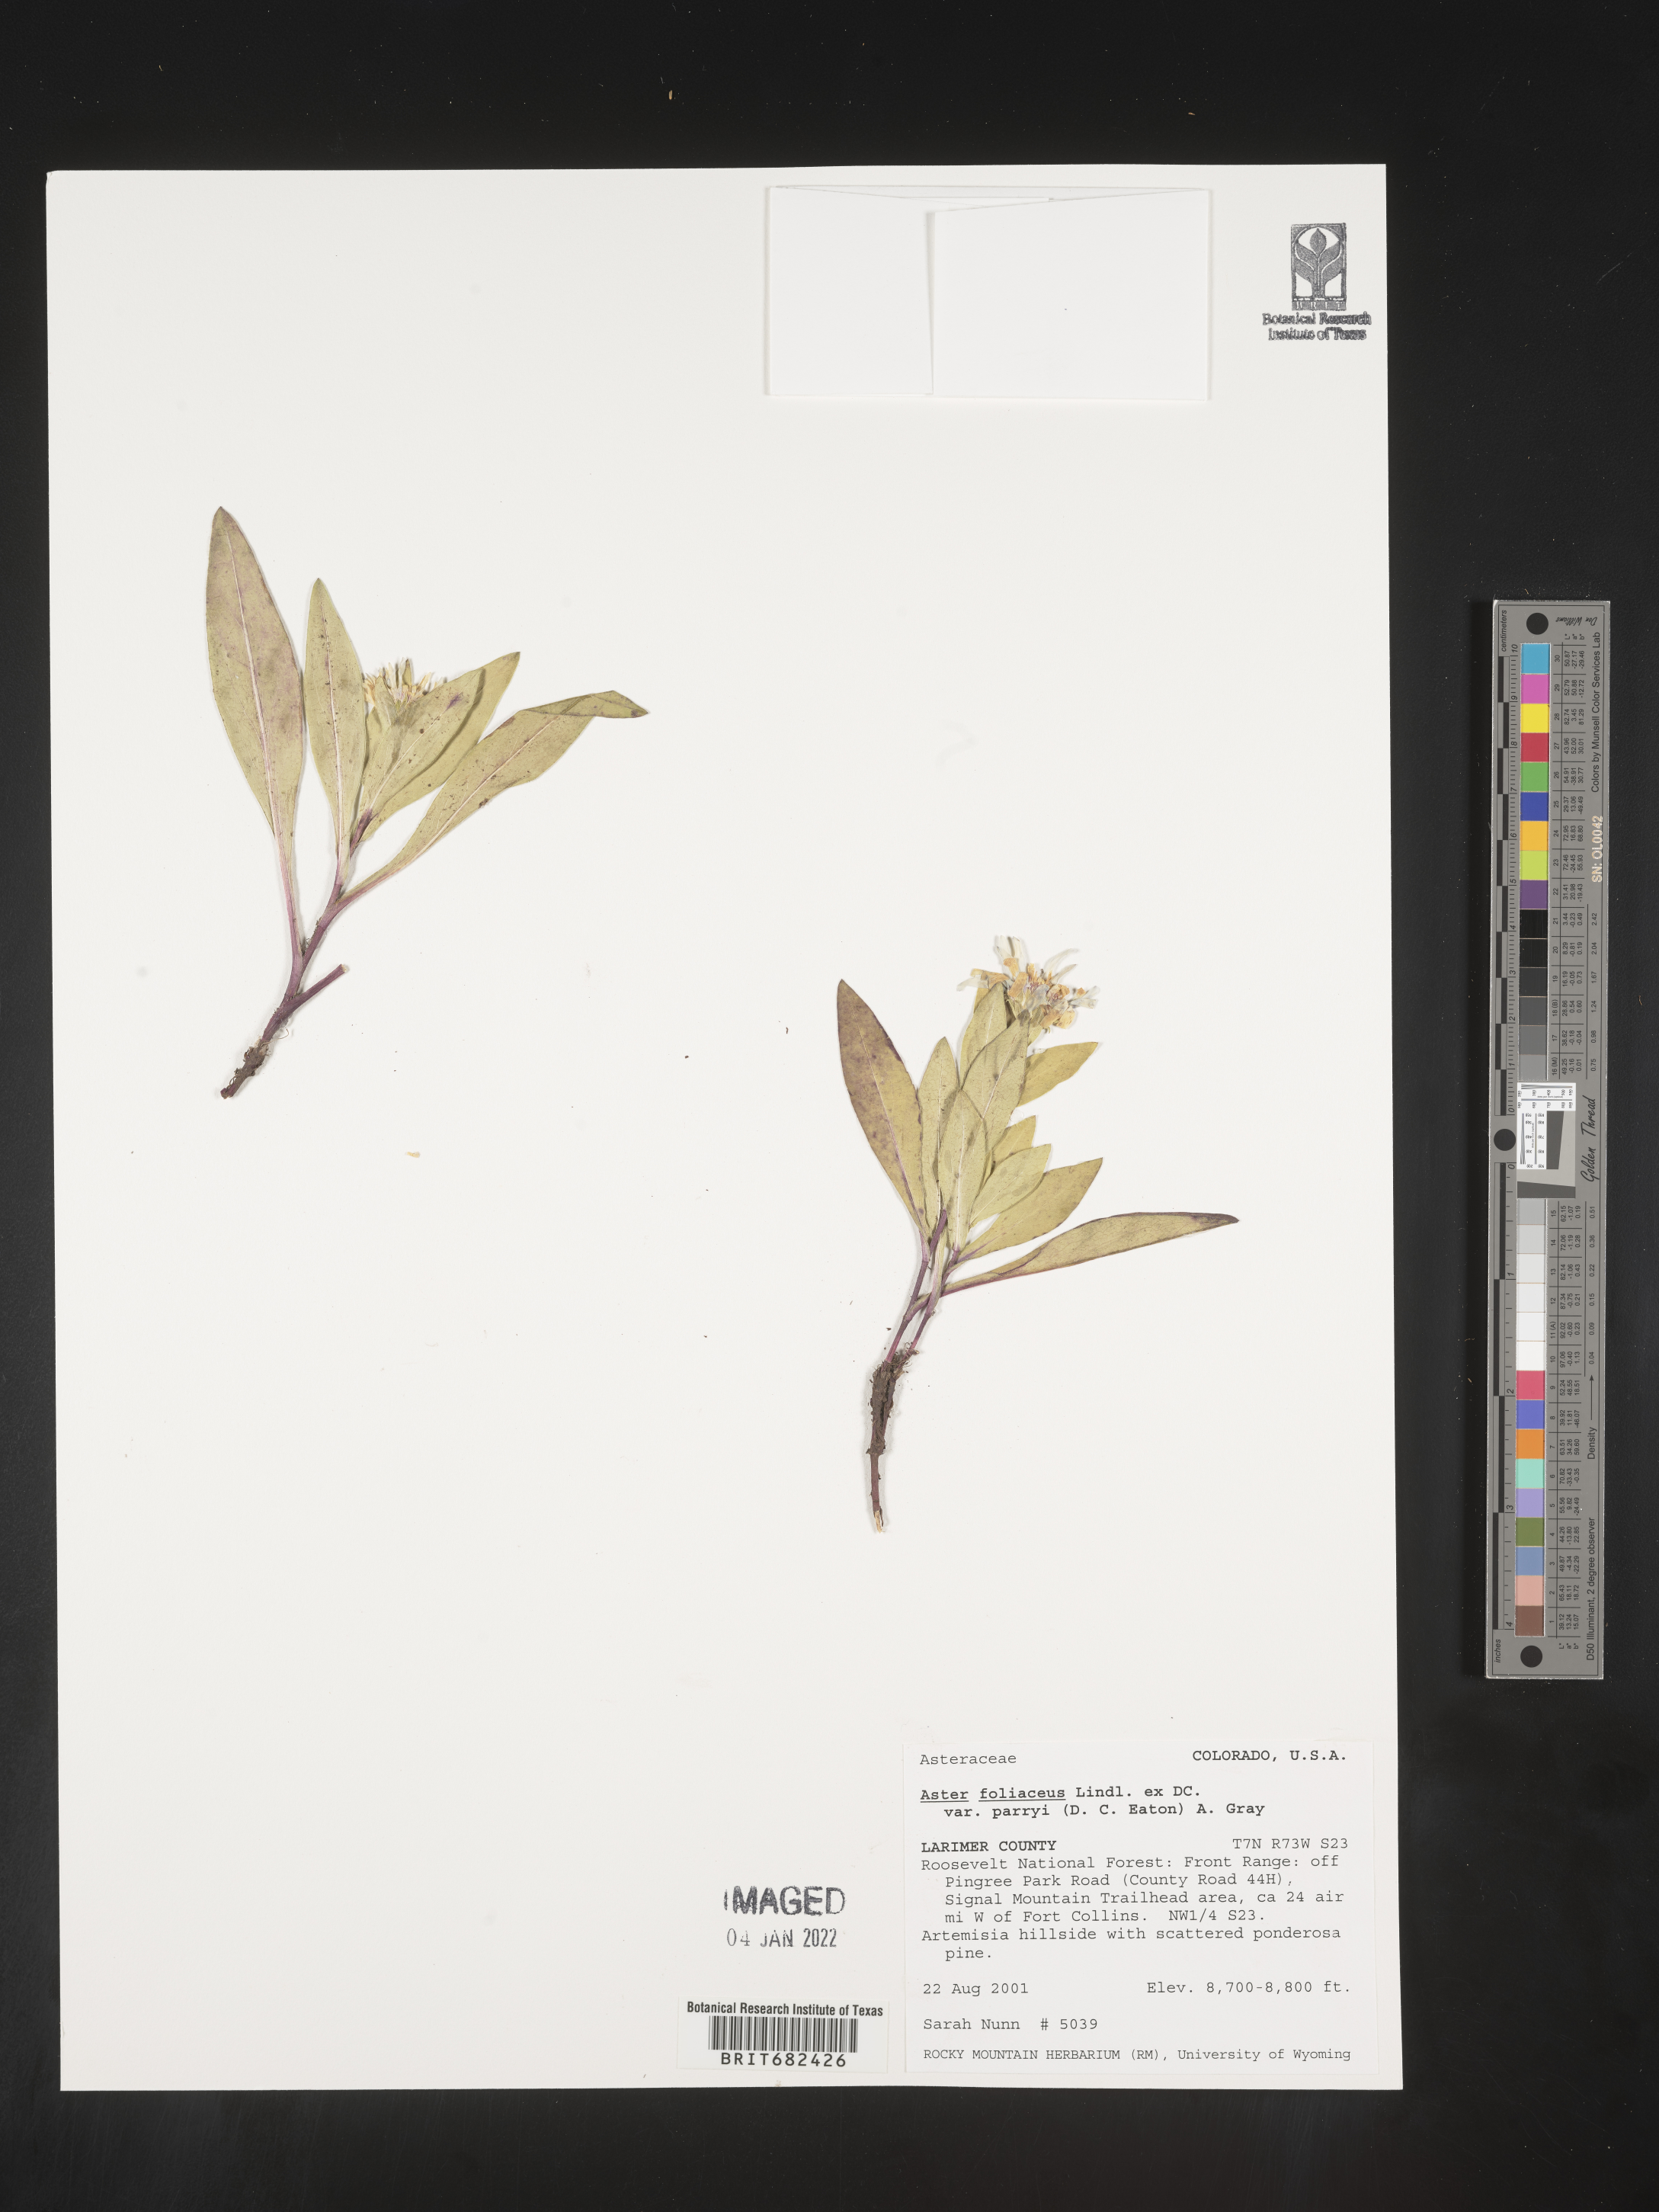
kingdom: Plantae
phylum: Tracheophyta
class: Magnoliopsida
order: Asterales
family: Asteraceae
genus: Aster
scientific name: Aster
